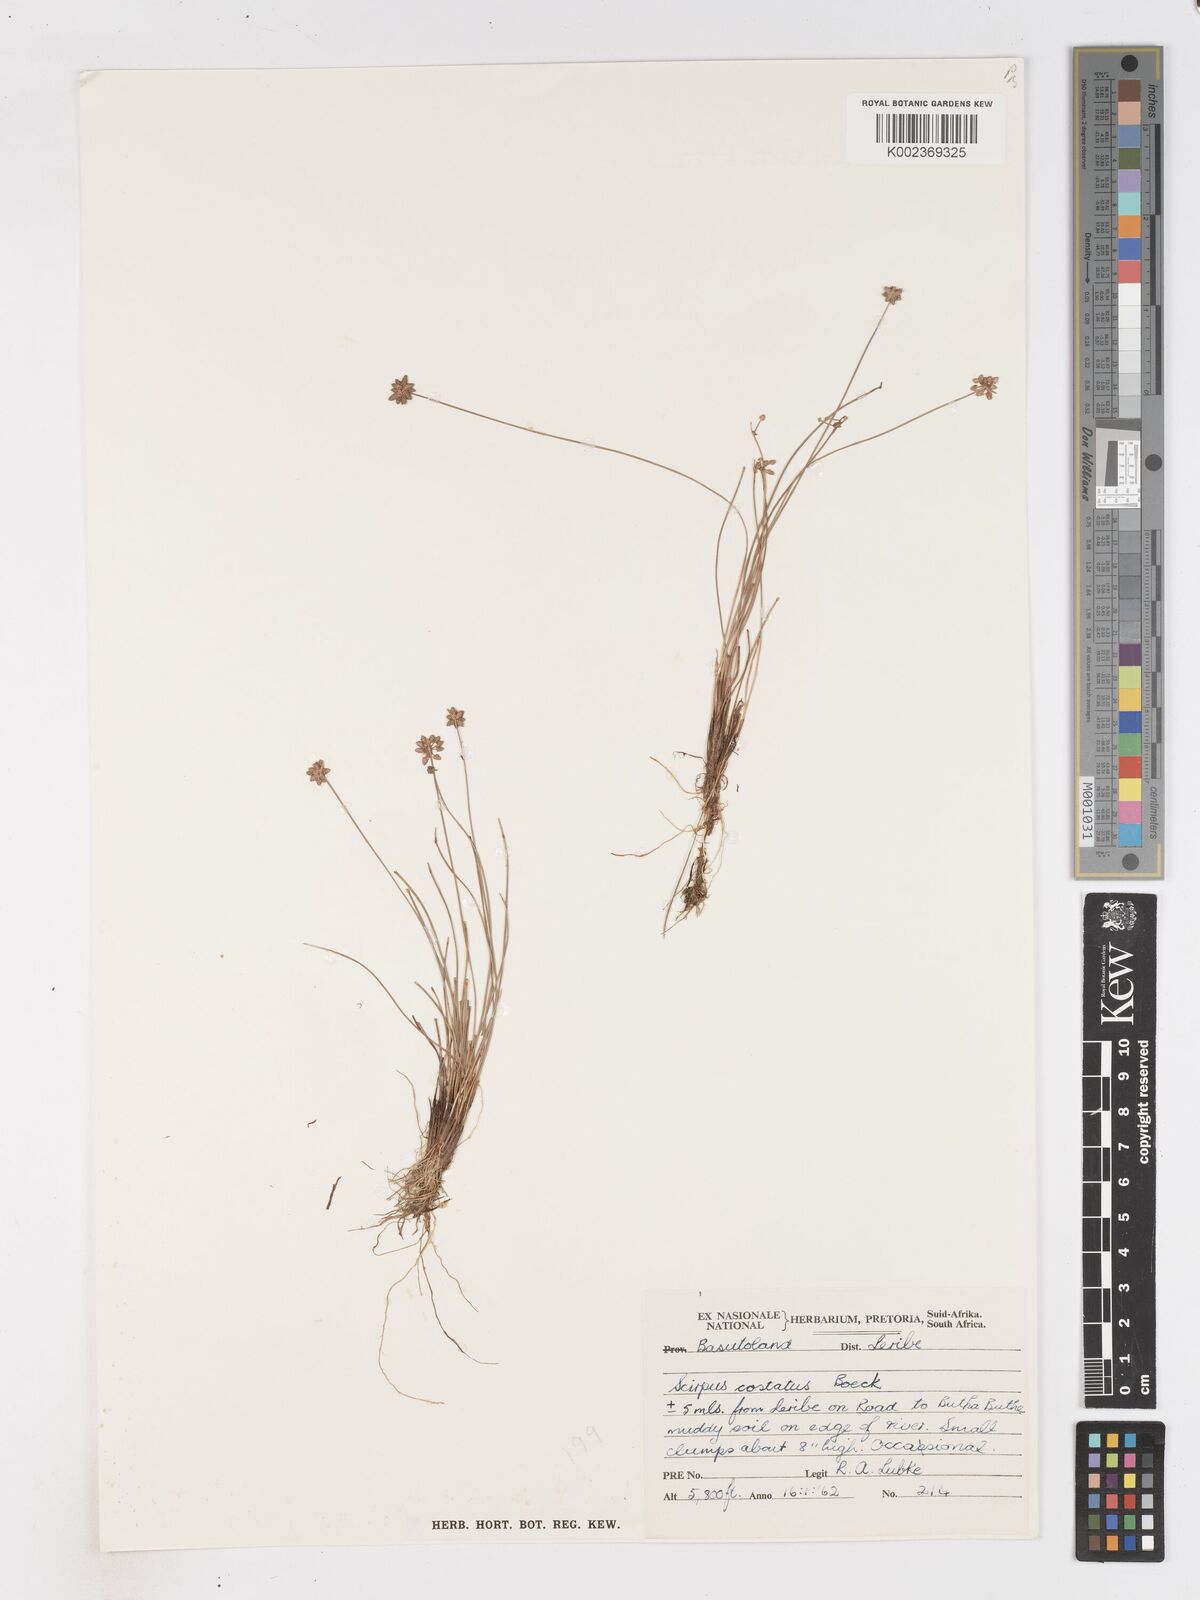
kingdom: Plantae
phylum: Tracheophyta
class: Liliopsida
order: Poales
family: Cyperaceae
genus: Isolepis
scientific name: Isolepis costata
